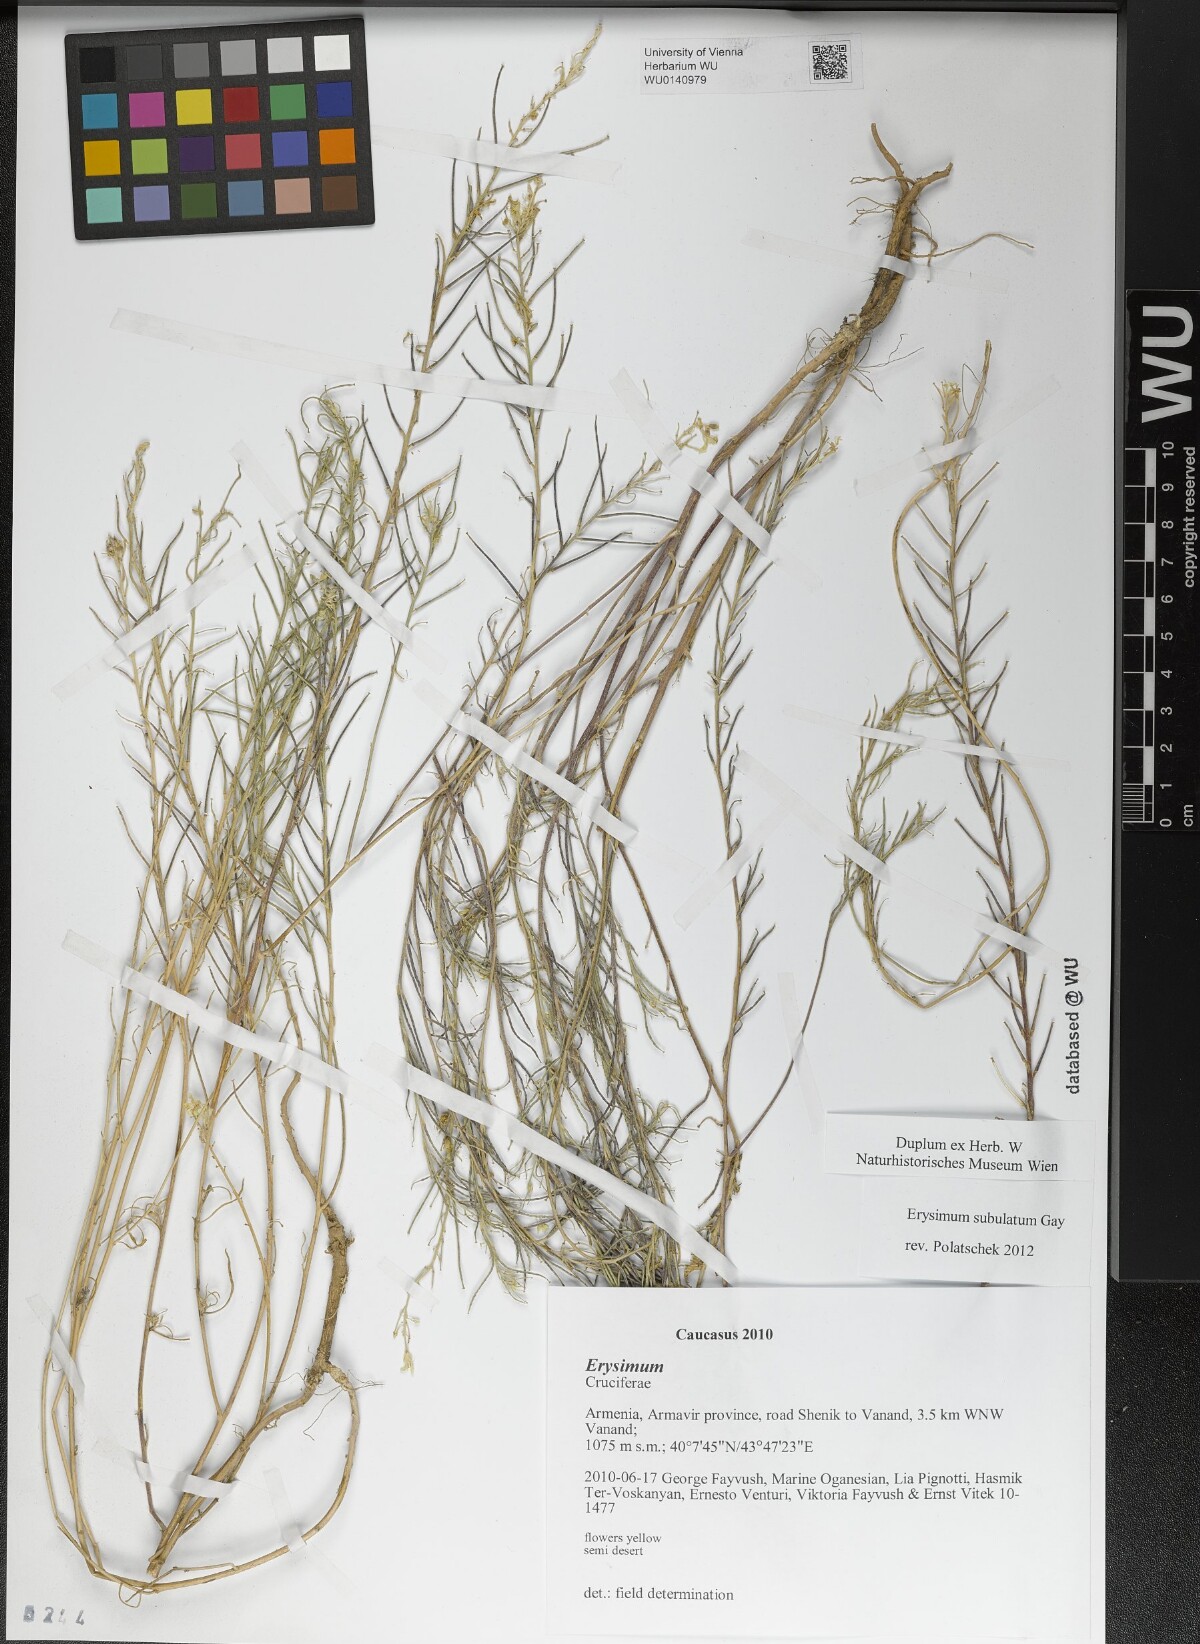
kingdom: Plantae
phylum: Tracheophyta
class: Magnoliopsida
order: Brassicales
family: Brassicaceae
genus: Erysimum
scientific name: Erysimum subulatum
